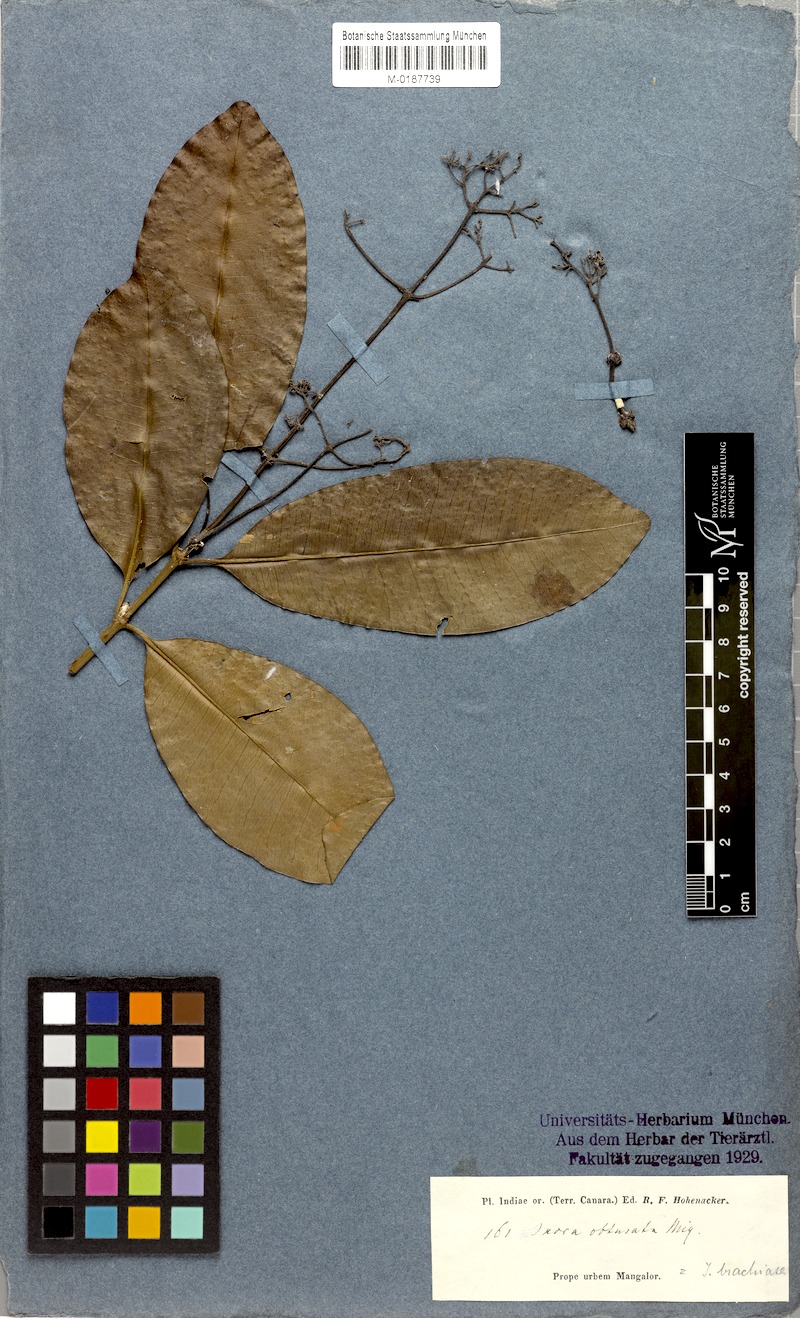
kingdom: Plantae
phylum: Tracheophyta
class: Magnoliopsida
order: Gentianales
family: Rubiaceae
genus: Ixora
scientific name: Ixora brachiata
